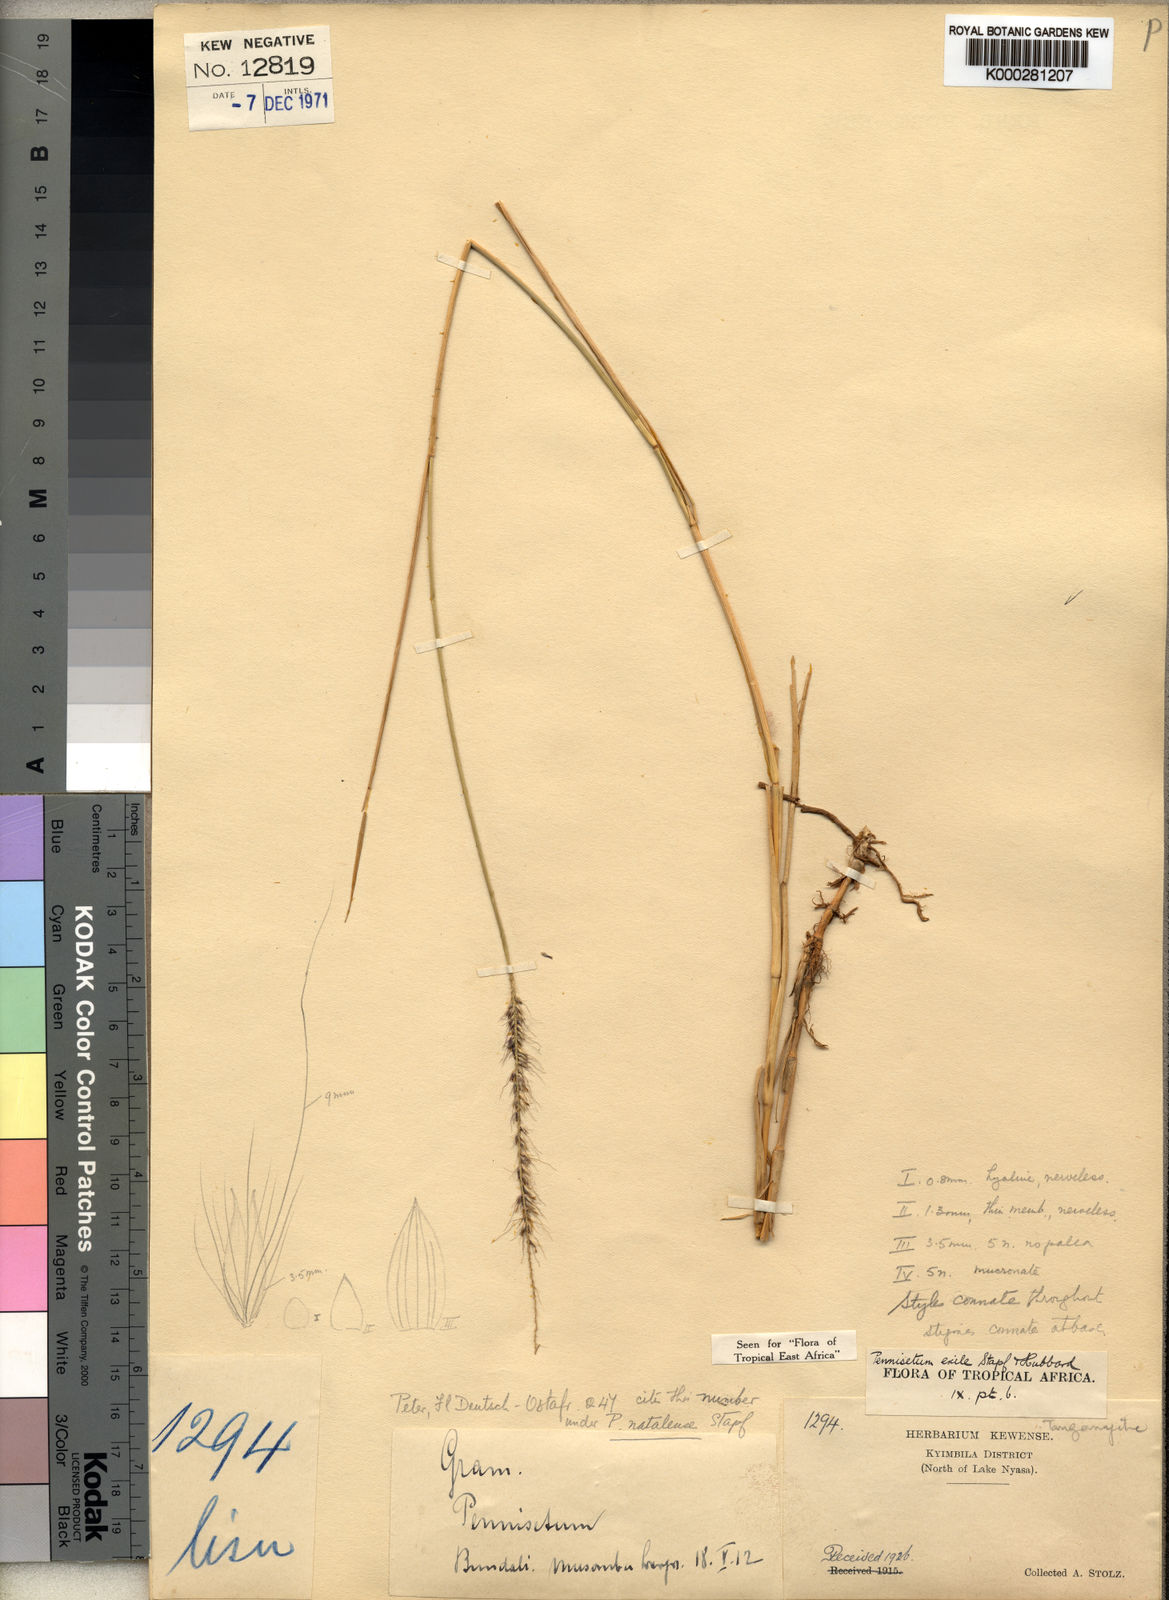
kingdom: Plantae
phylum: Tracheophyta
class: Liliopsida
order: Poales
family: Poaceae
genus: Cenchrus
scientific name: Cenchrus caudatus
